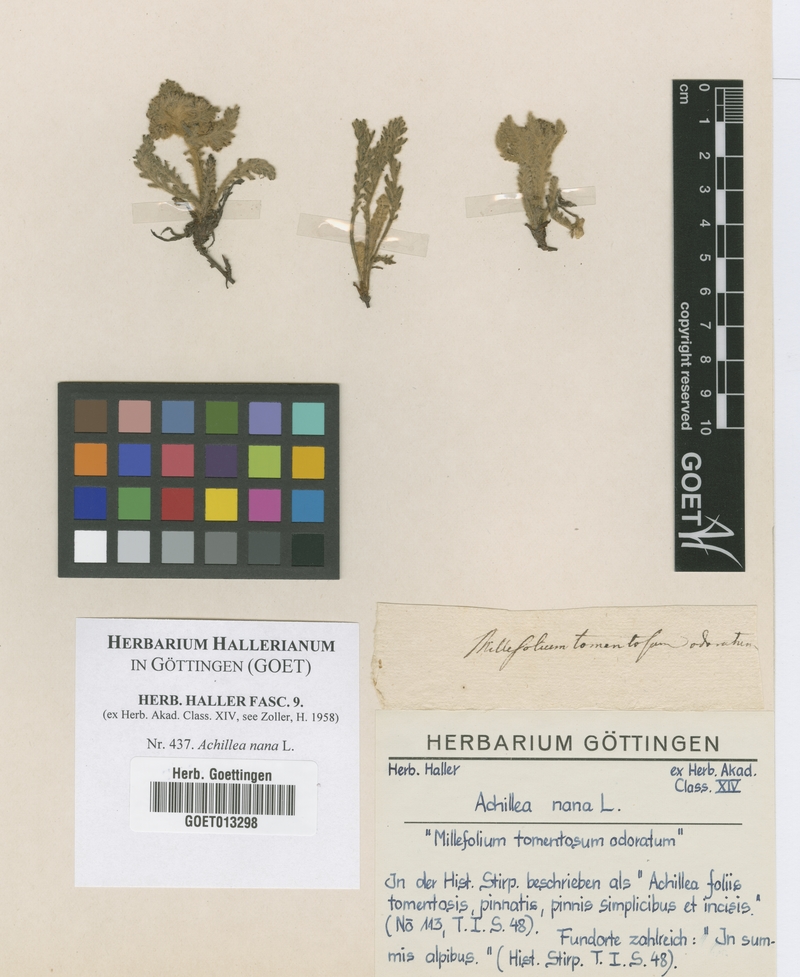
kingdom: Plantae
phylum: Tracheophyta
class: Magnoliopsida
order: Asterales
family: Asteraceae
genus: Achillea
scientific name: Achillea nana
